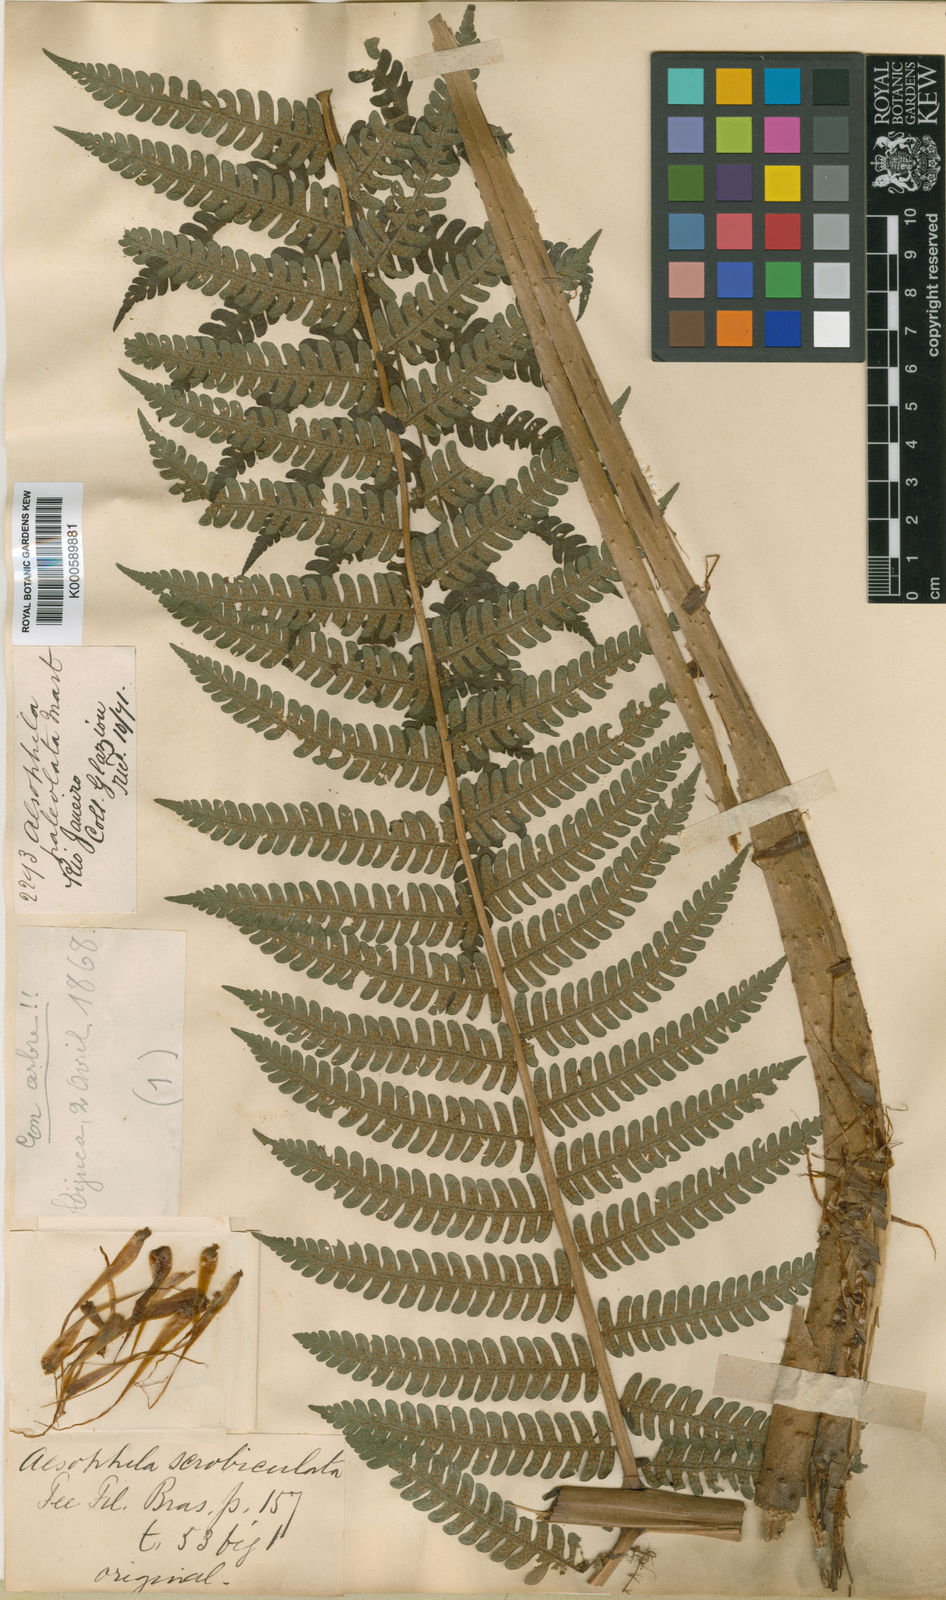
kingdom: Plantae
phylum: Tracheophyta
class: Polypodiopsida
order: Cyatheales
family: Cyatheaceae
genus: Cyathea
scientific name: Cyathea phalerata
